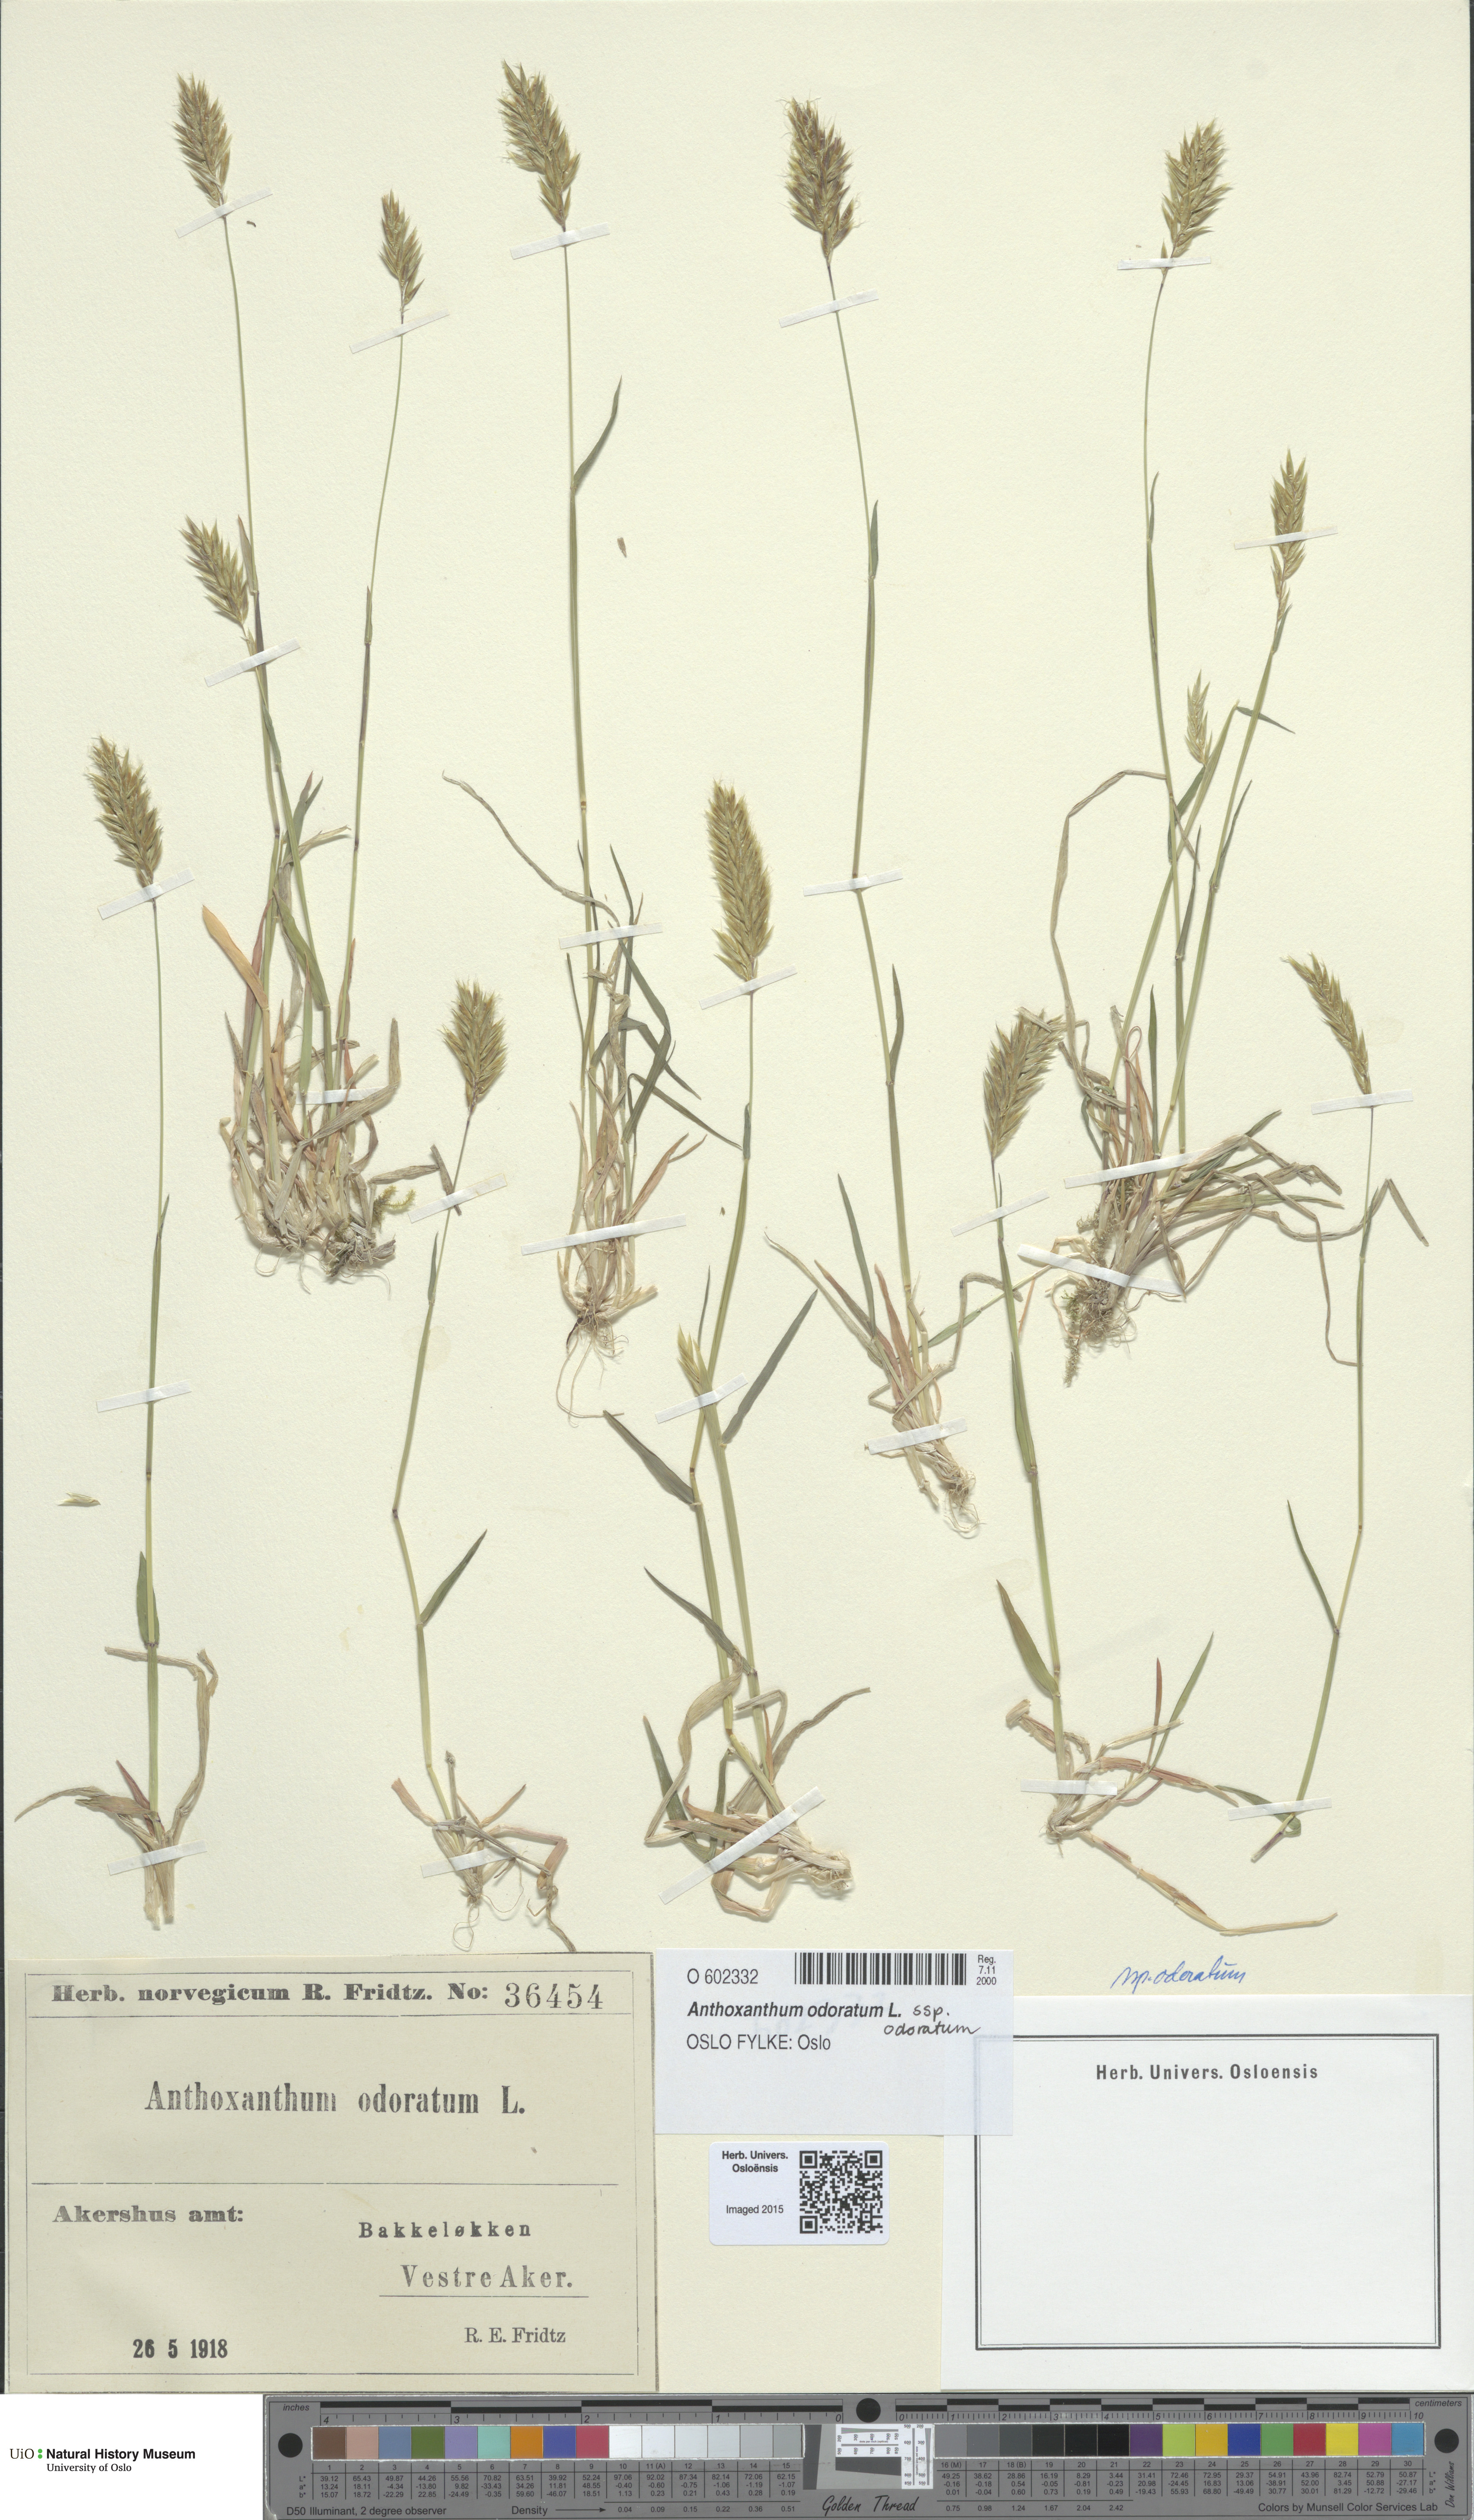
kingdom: Plantae
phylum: Tracheophyta
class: Liliopsida
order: Poales
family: Poaceae
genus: Anthoxanthum
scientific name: Anthoxanthum odoratum
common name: Sweet vernalgrass
